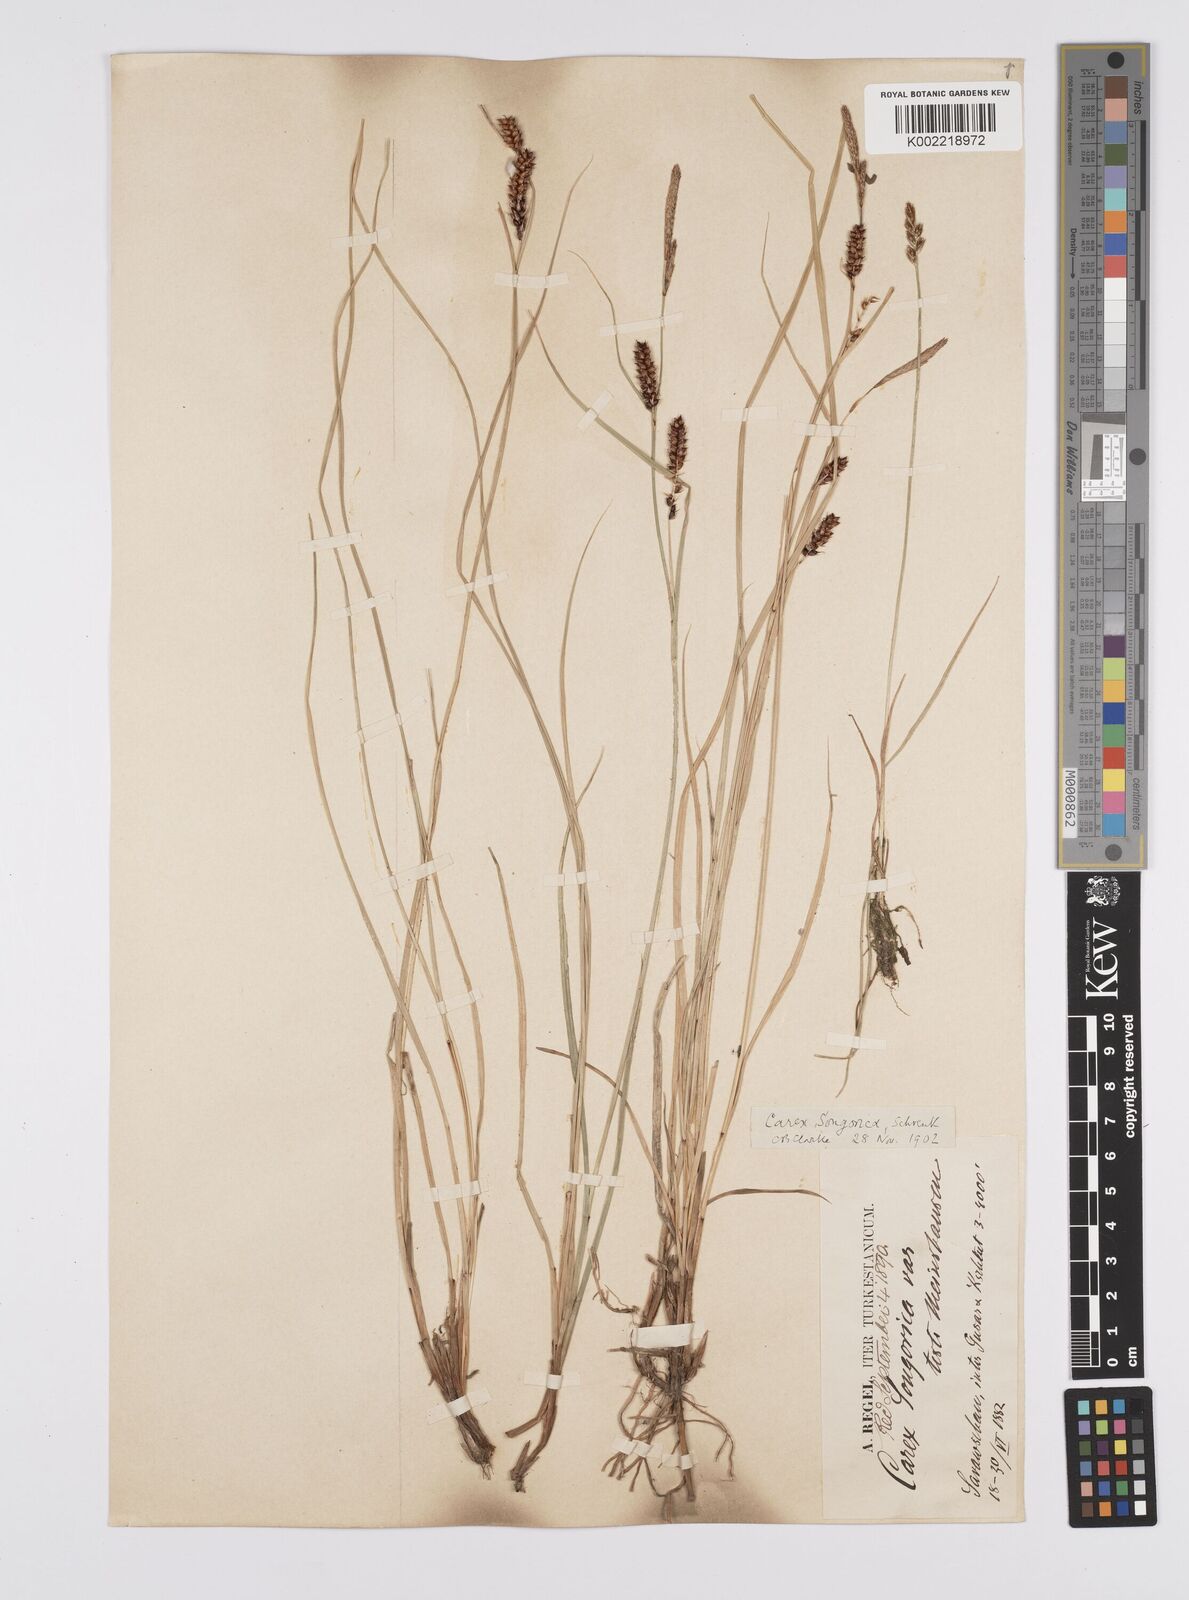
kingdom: Plantae
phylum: Tracheophyta
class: Liliopsida
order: Poales
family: Cyperaceae
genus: Carex
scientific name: Carex heterostachya
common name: Different-spike sedge
